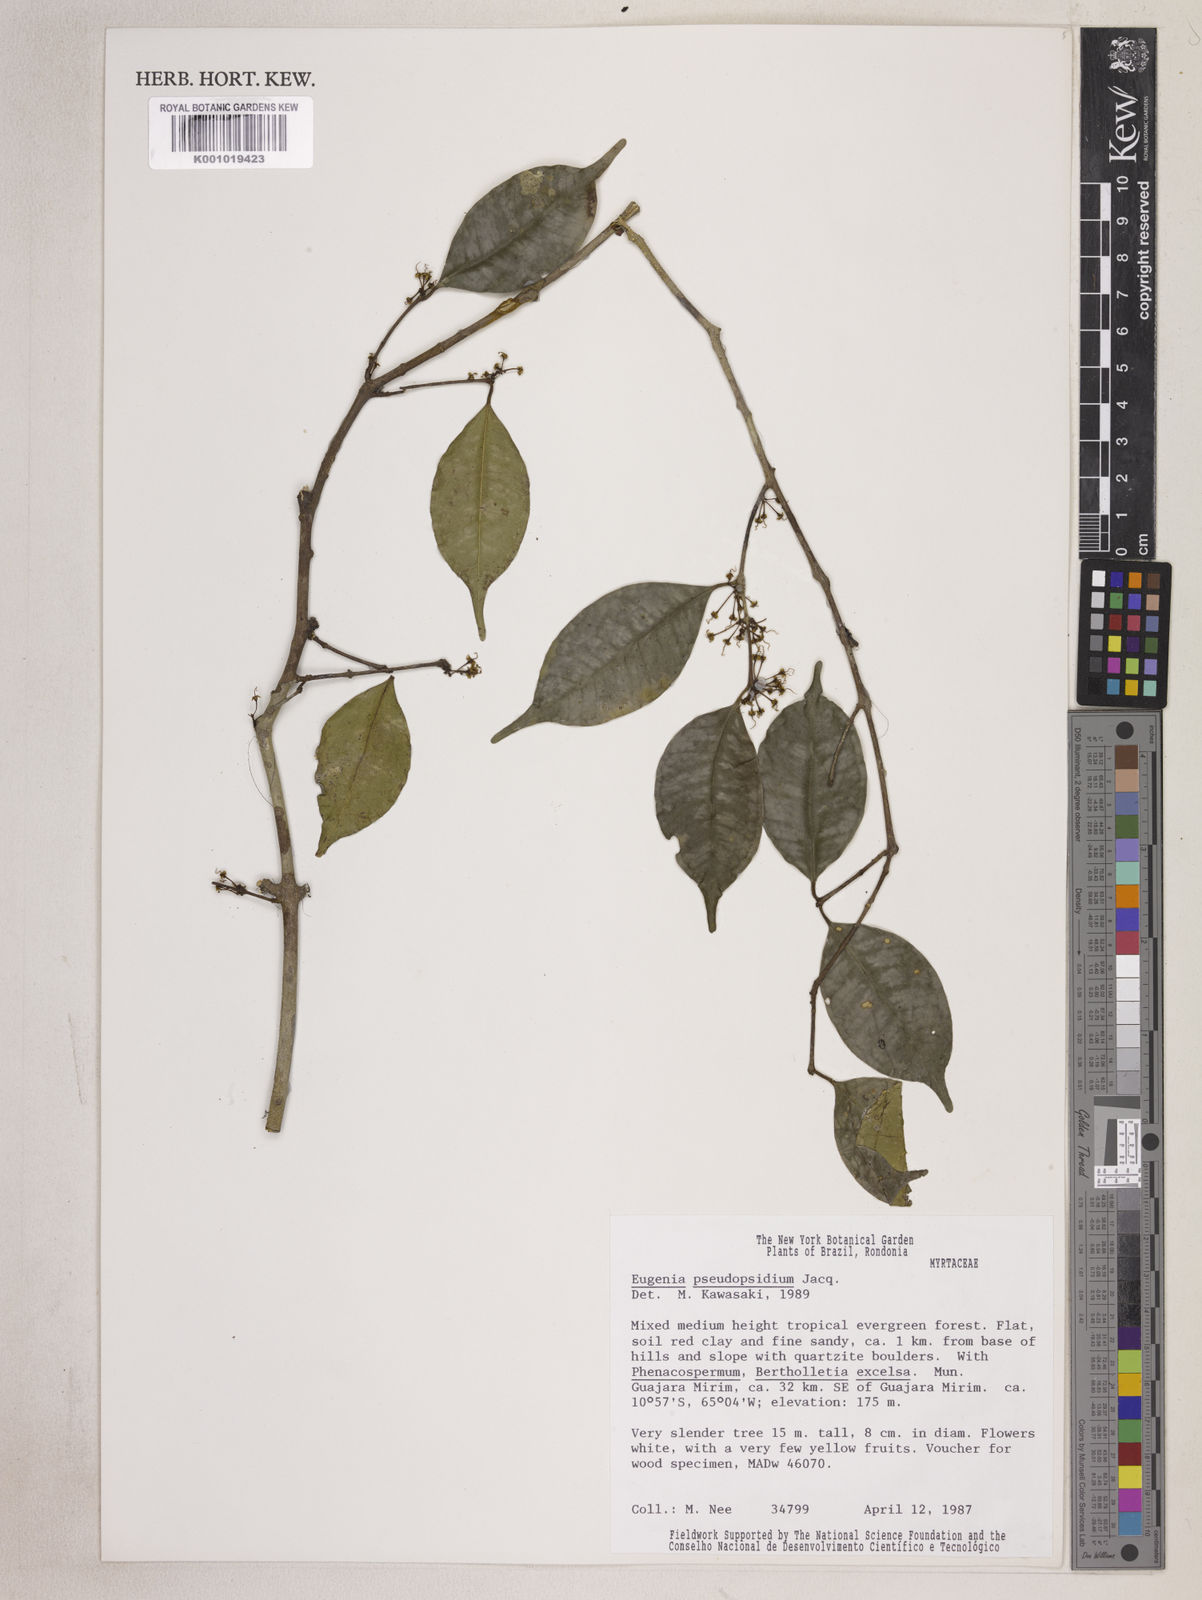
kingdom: Plantae
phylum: Tracheophyta
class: Magnoliopsida
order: Myrtales
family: Myrtaceae
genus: Eugenia
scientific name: Eugenia pseudopsidium
